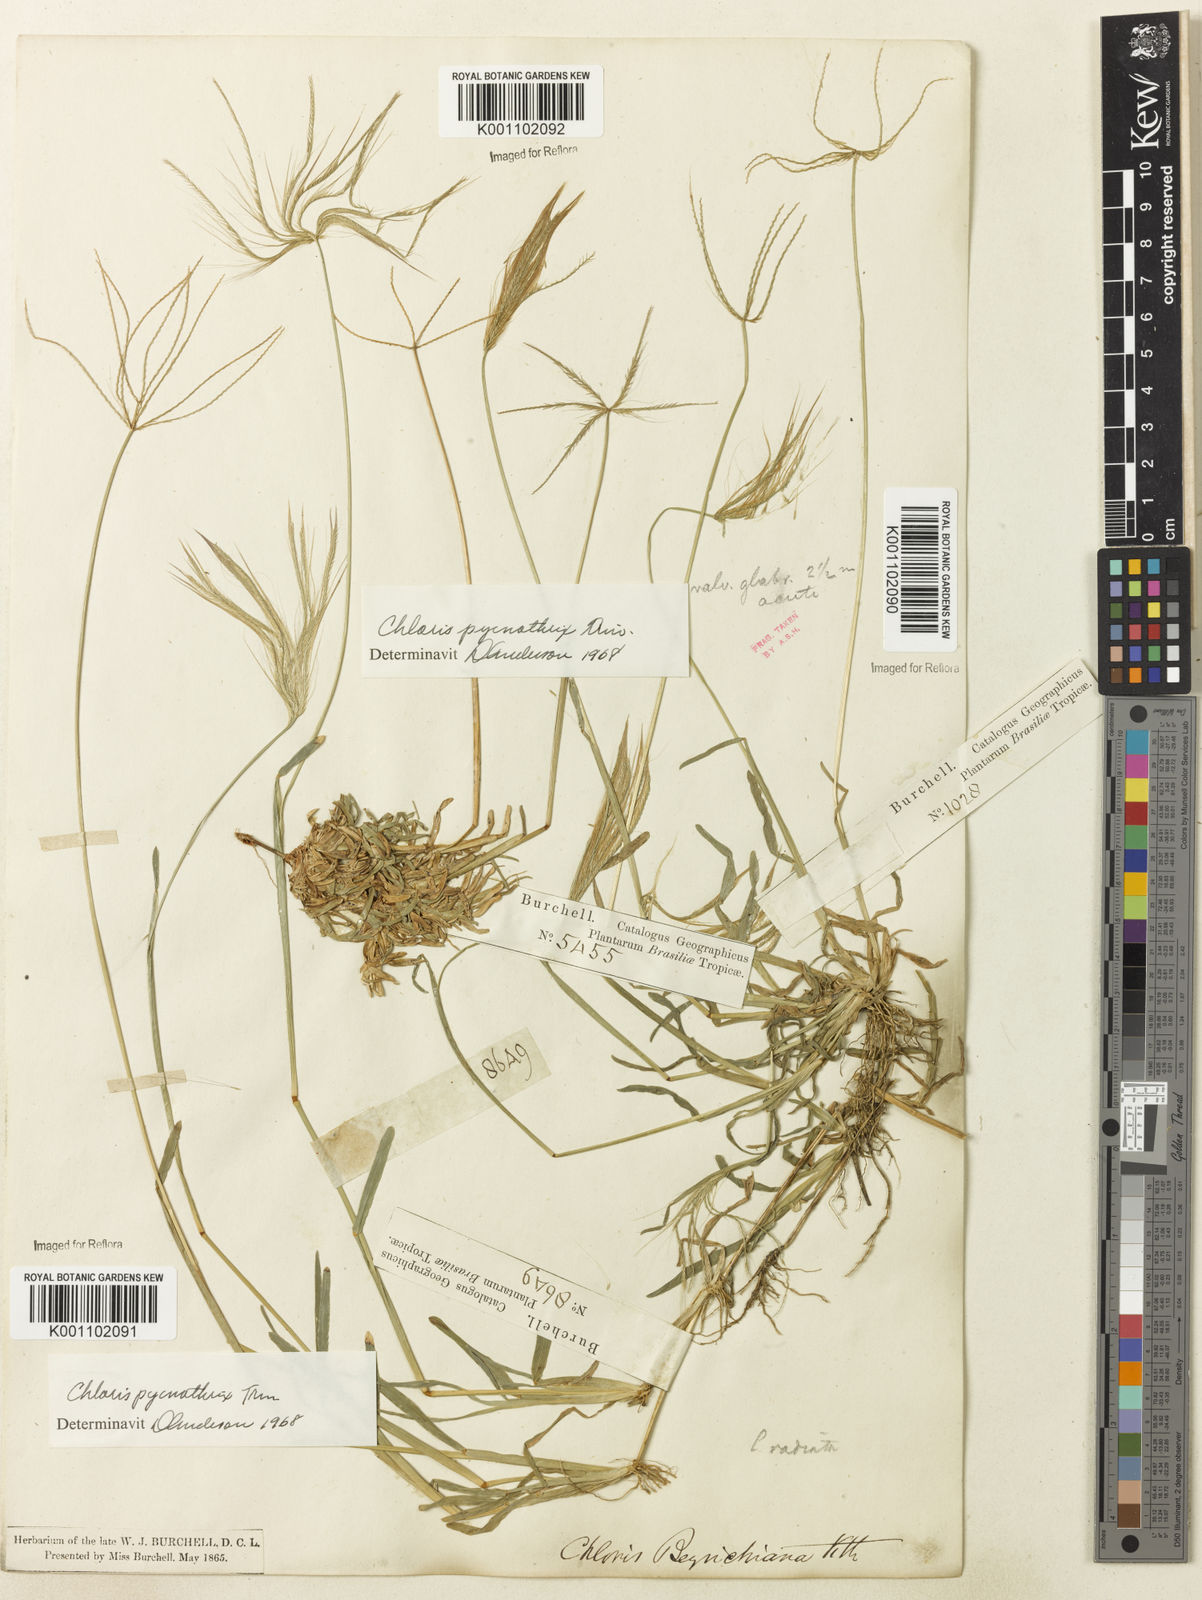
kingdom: Plantae
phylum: Tracheophyta
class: Liliopsida
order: Poales
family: Poaceae
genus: Chloris
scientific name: Chloris pycnothrix
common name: Spiderweb chloris
